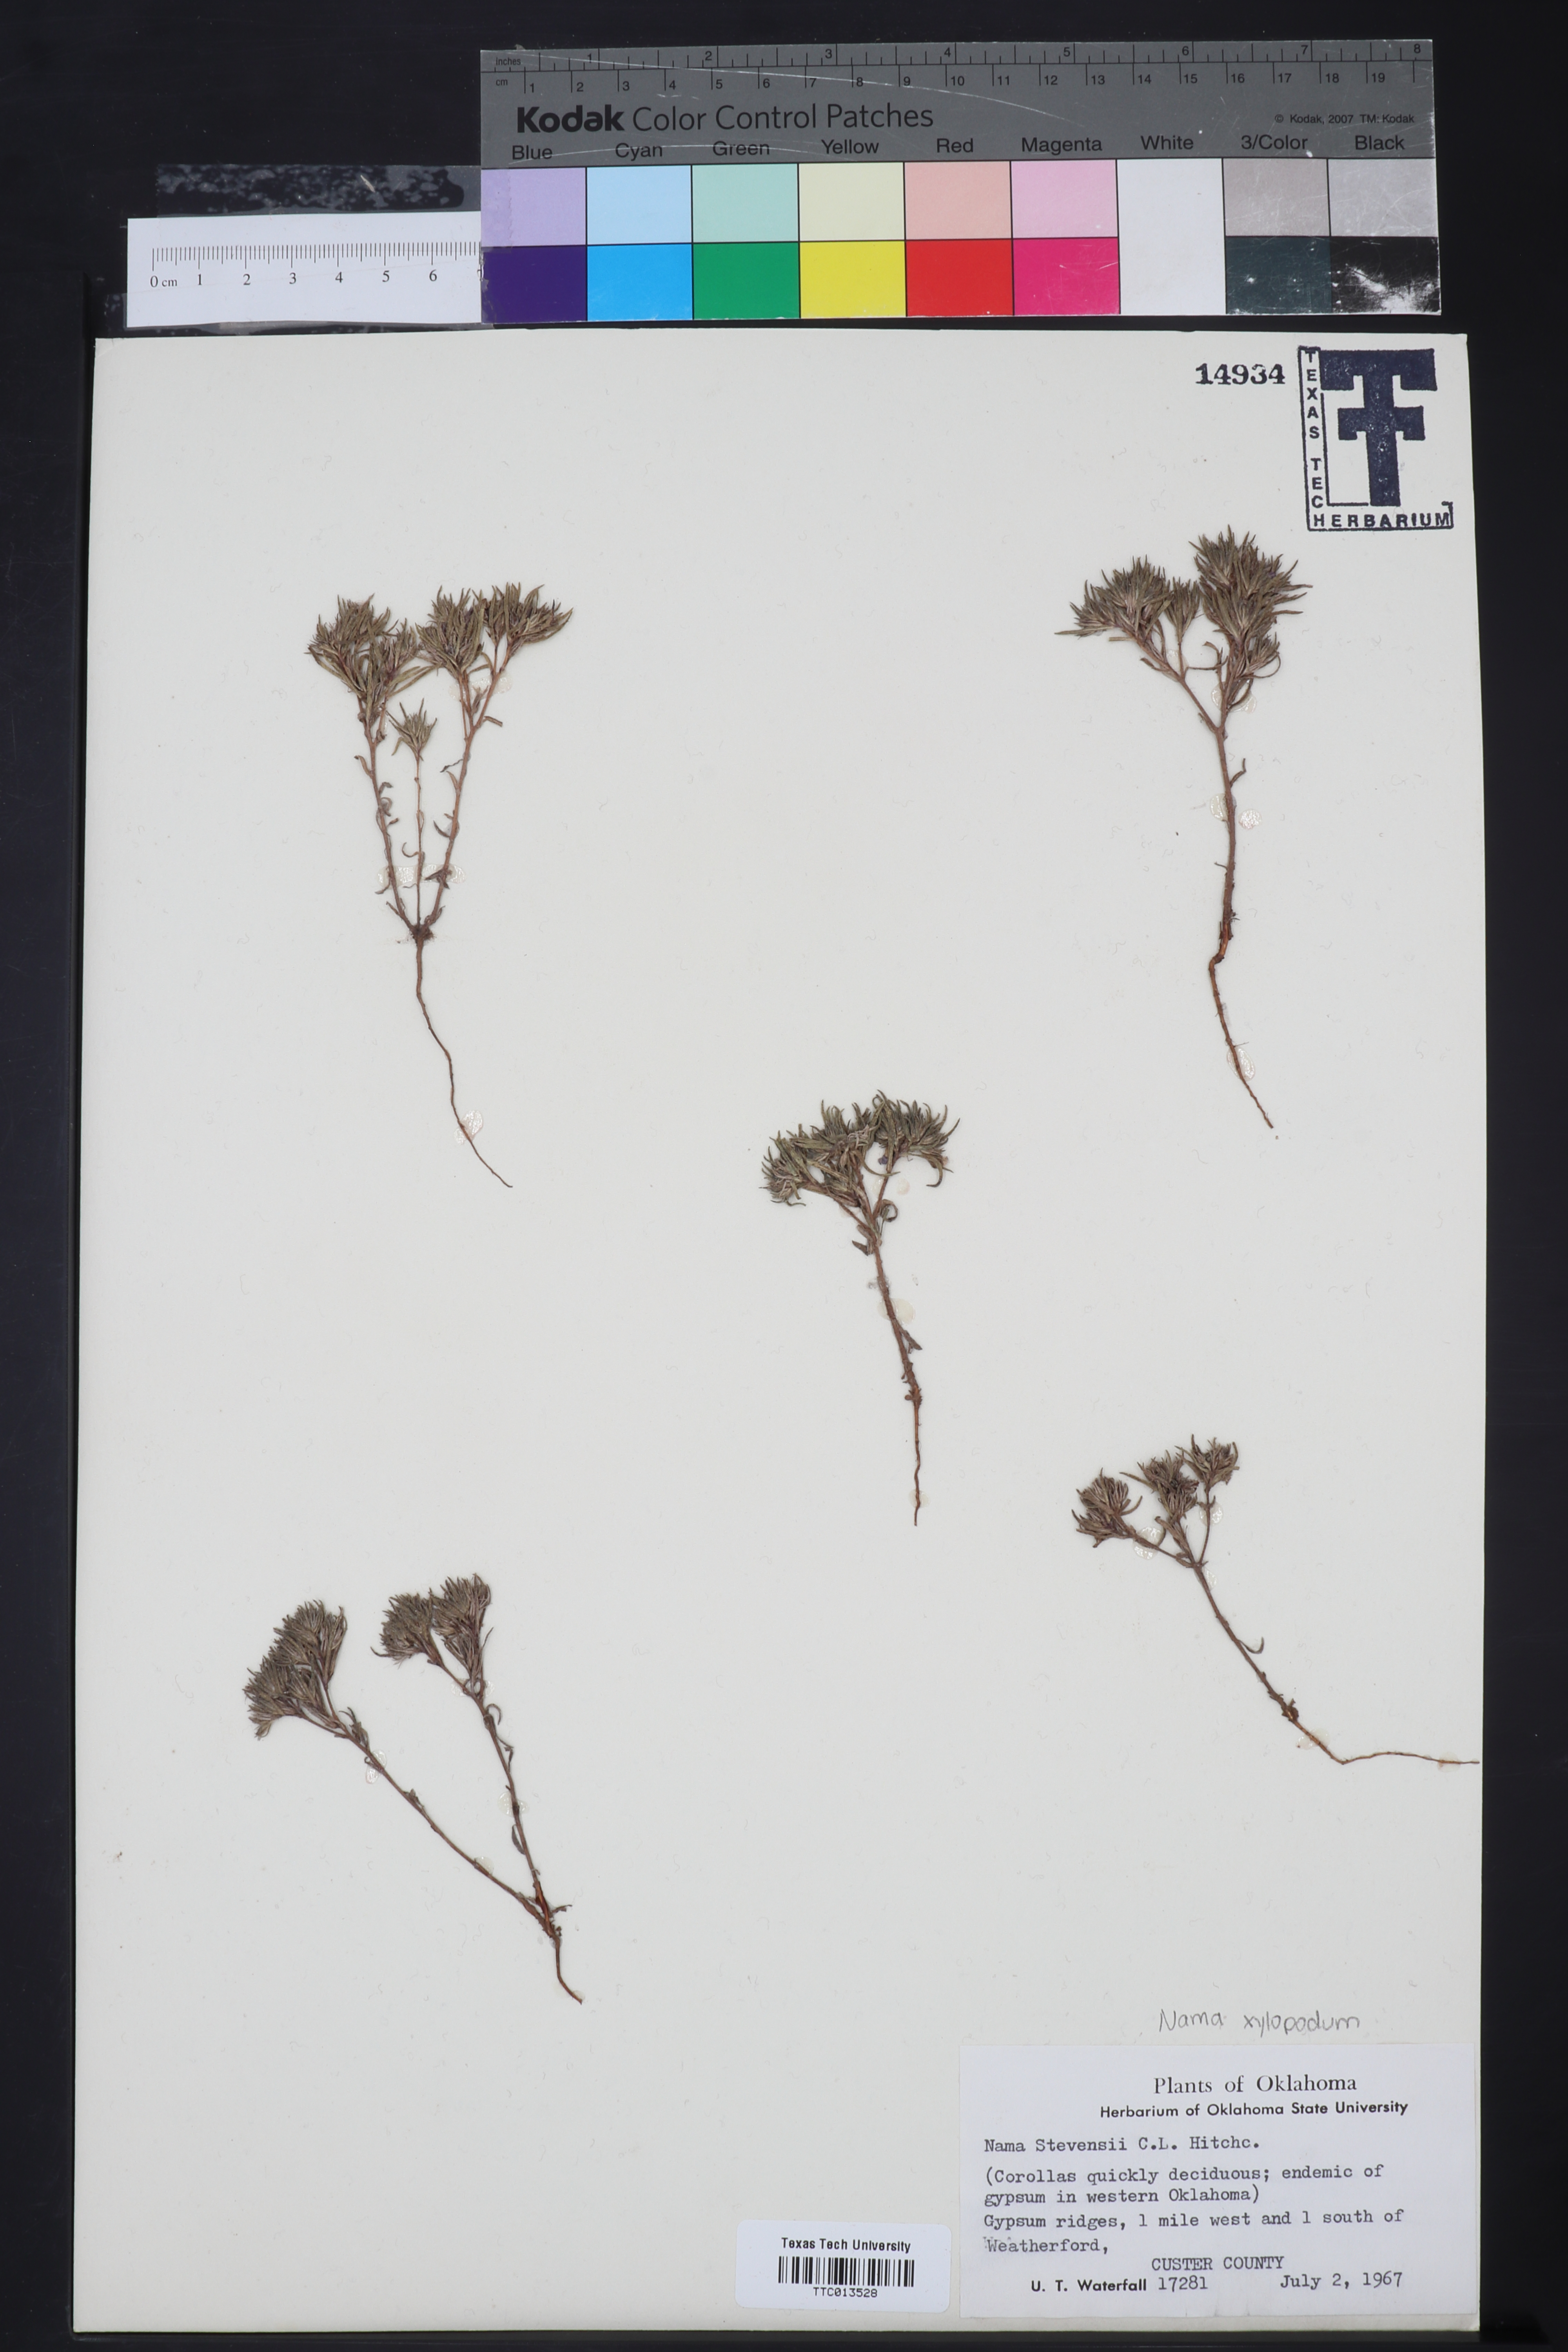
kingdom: Plantae
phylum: Tracheophyta
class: Magnoliopsida
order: Boraginales
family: Namaceae
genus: Nama
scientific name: Nama stevensii
